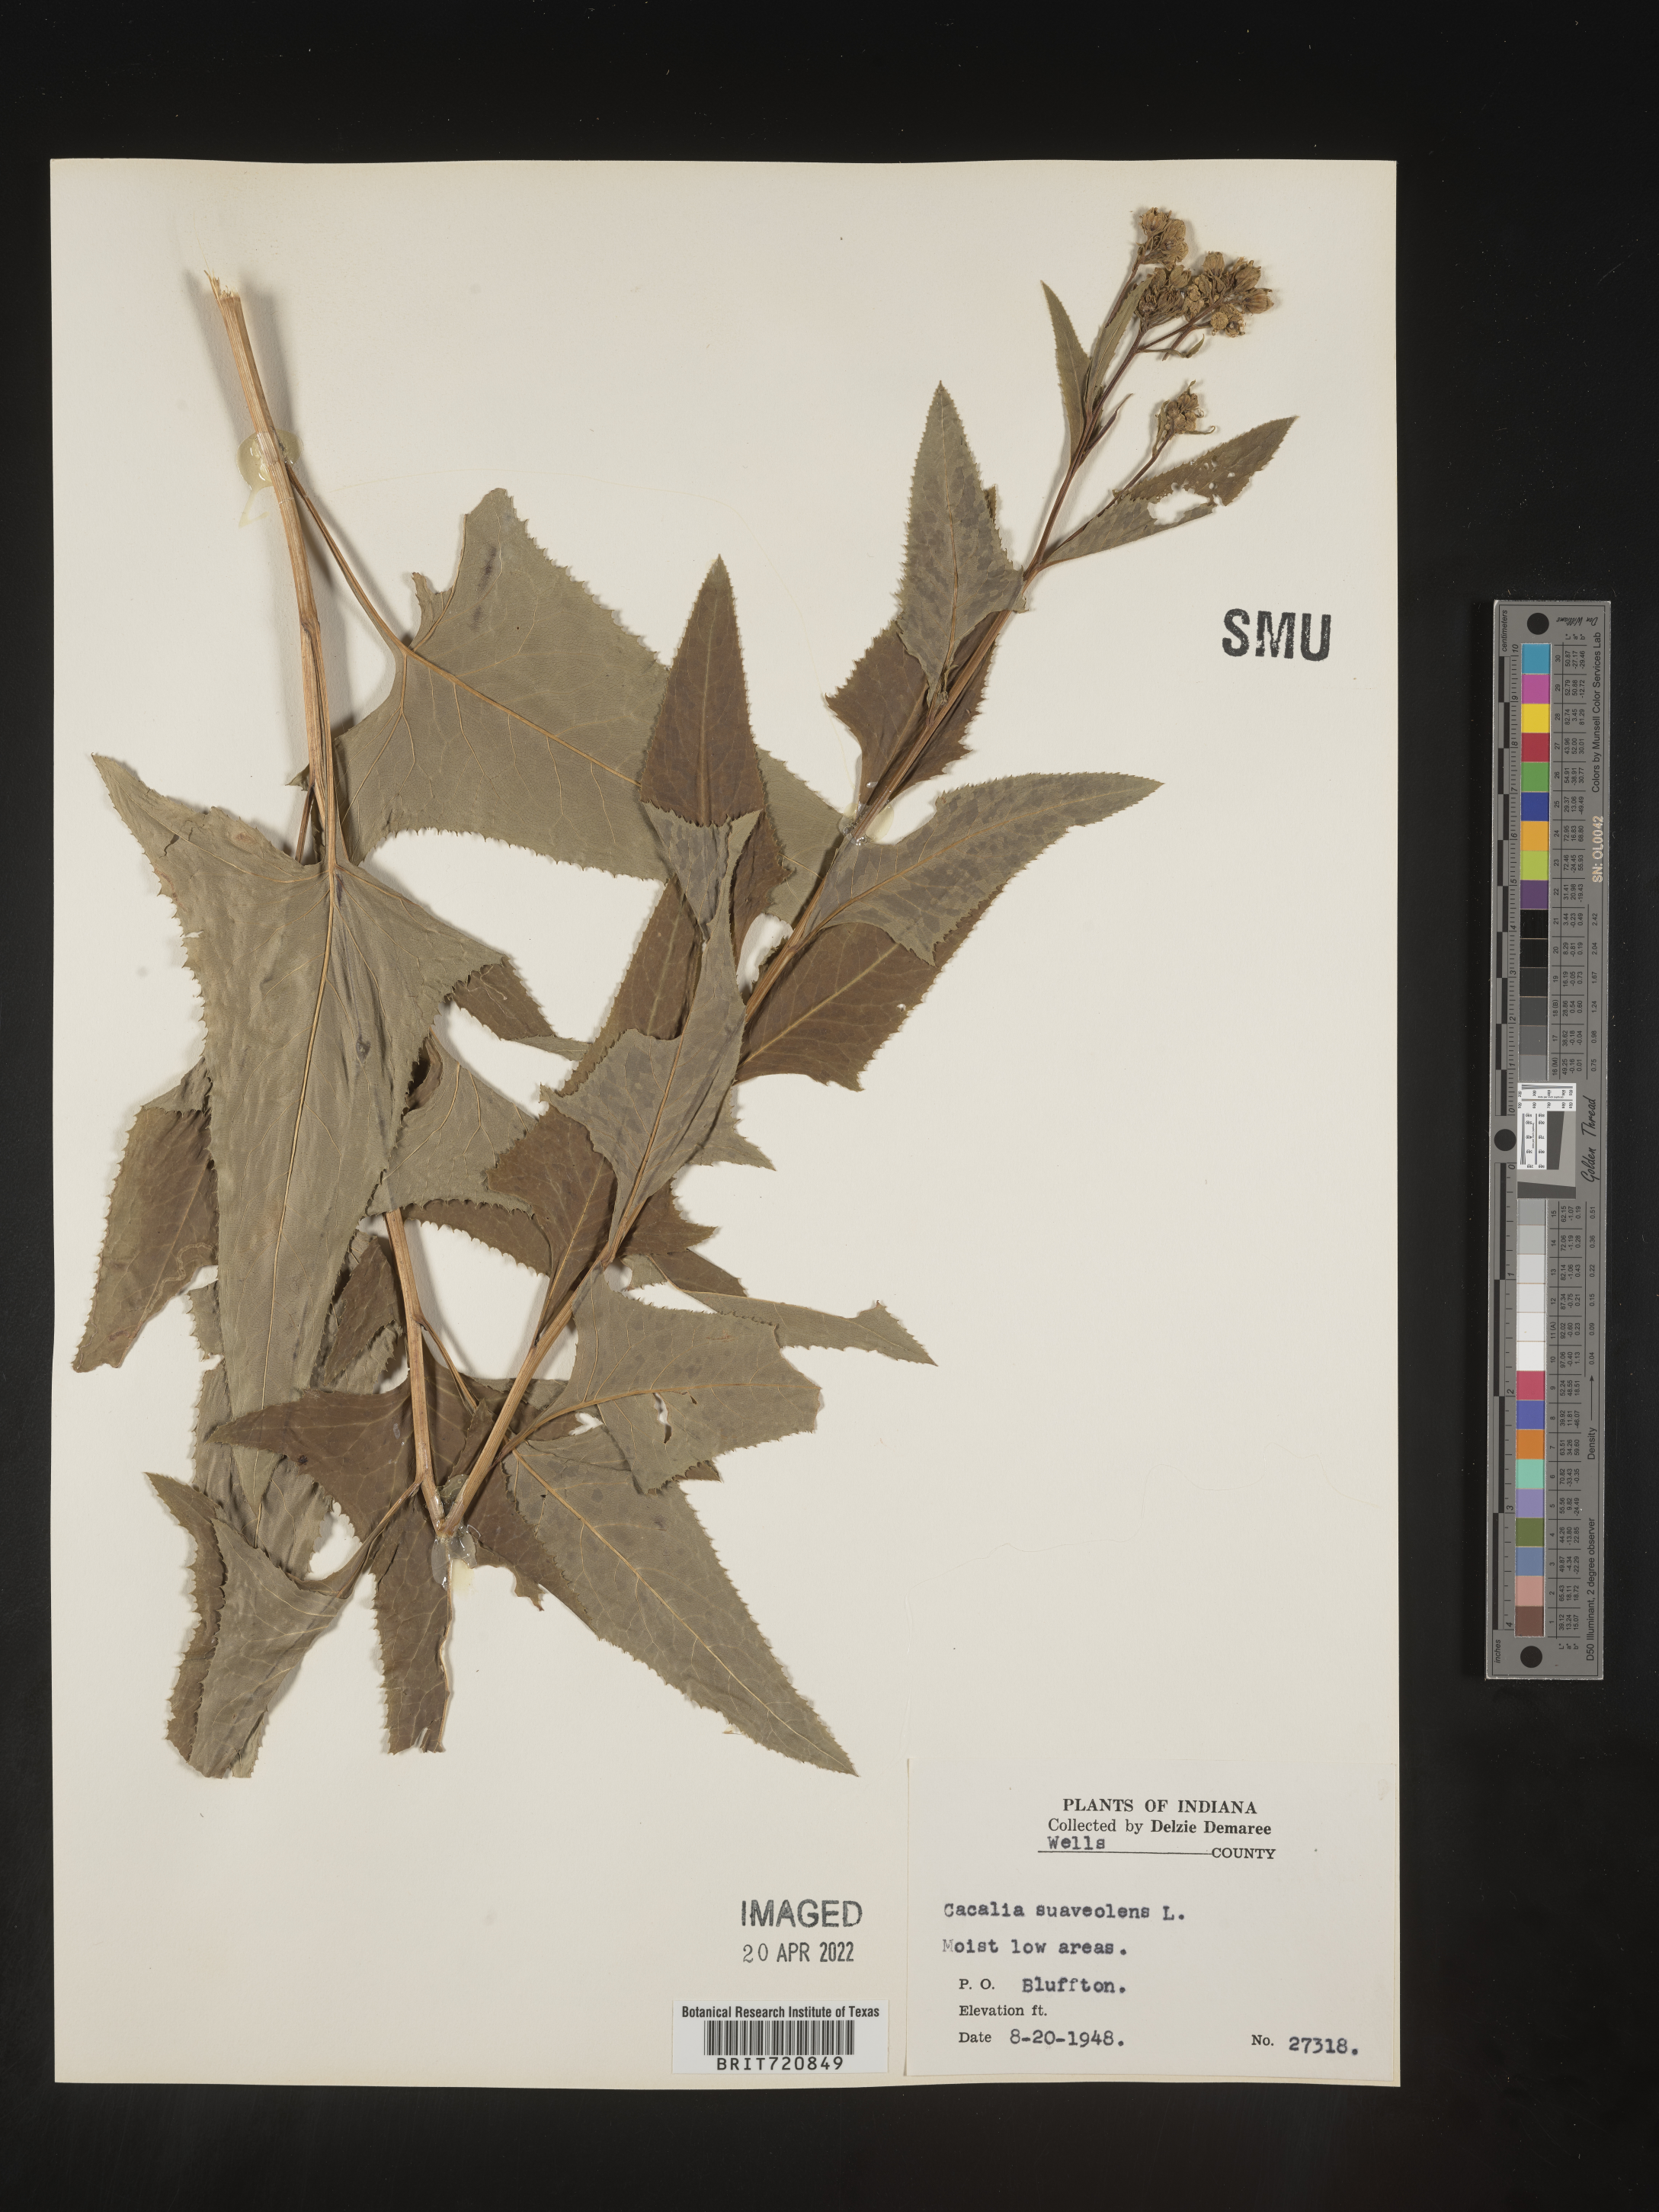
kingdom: Plantae
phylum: Tracheophyta
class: Magnoliopsida
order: Asterales
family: Asteraceae
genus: Hasteola
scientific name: Hasteola suaveolens
